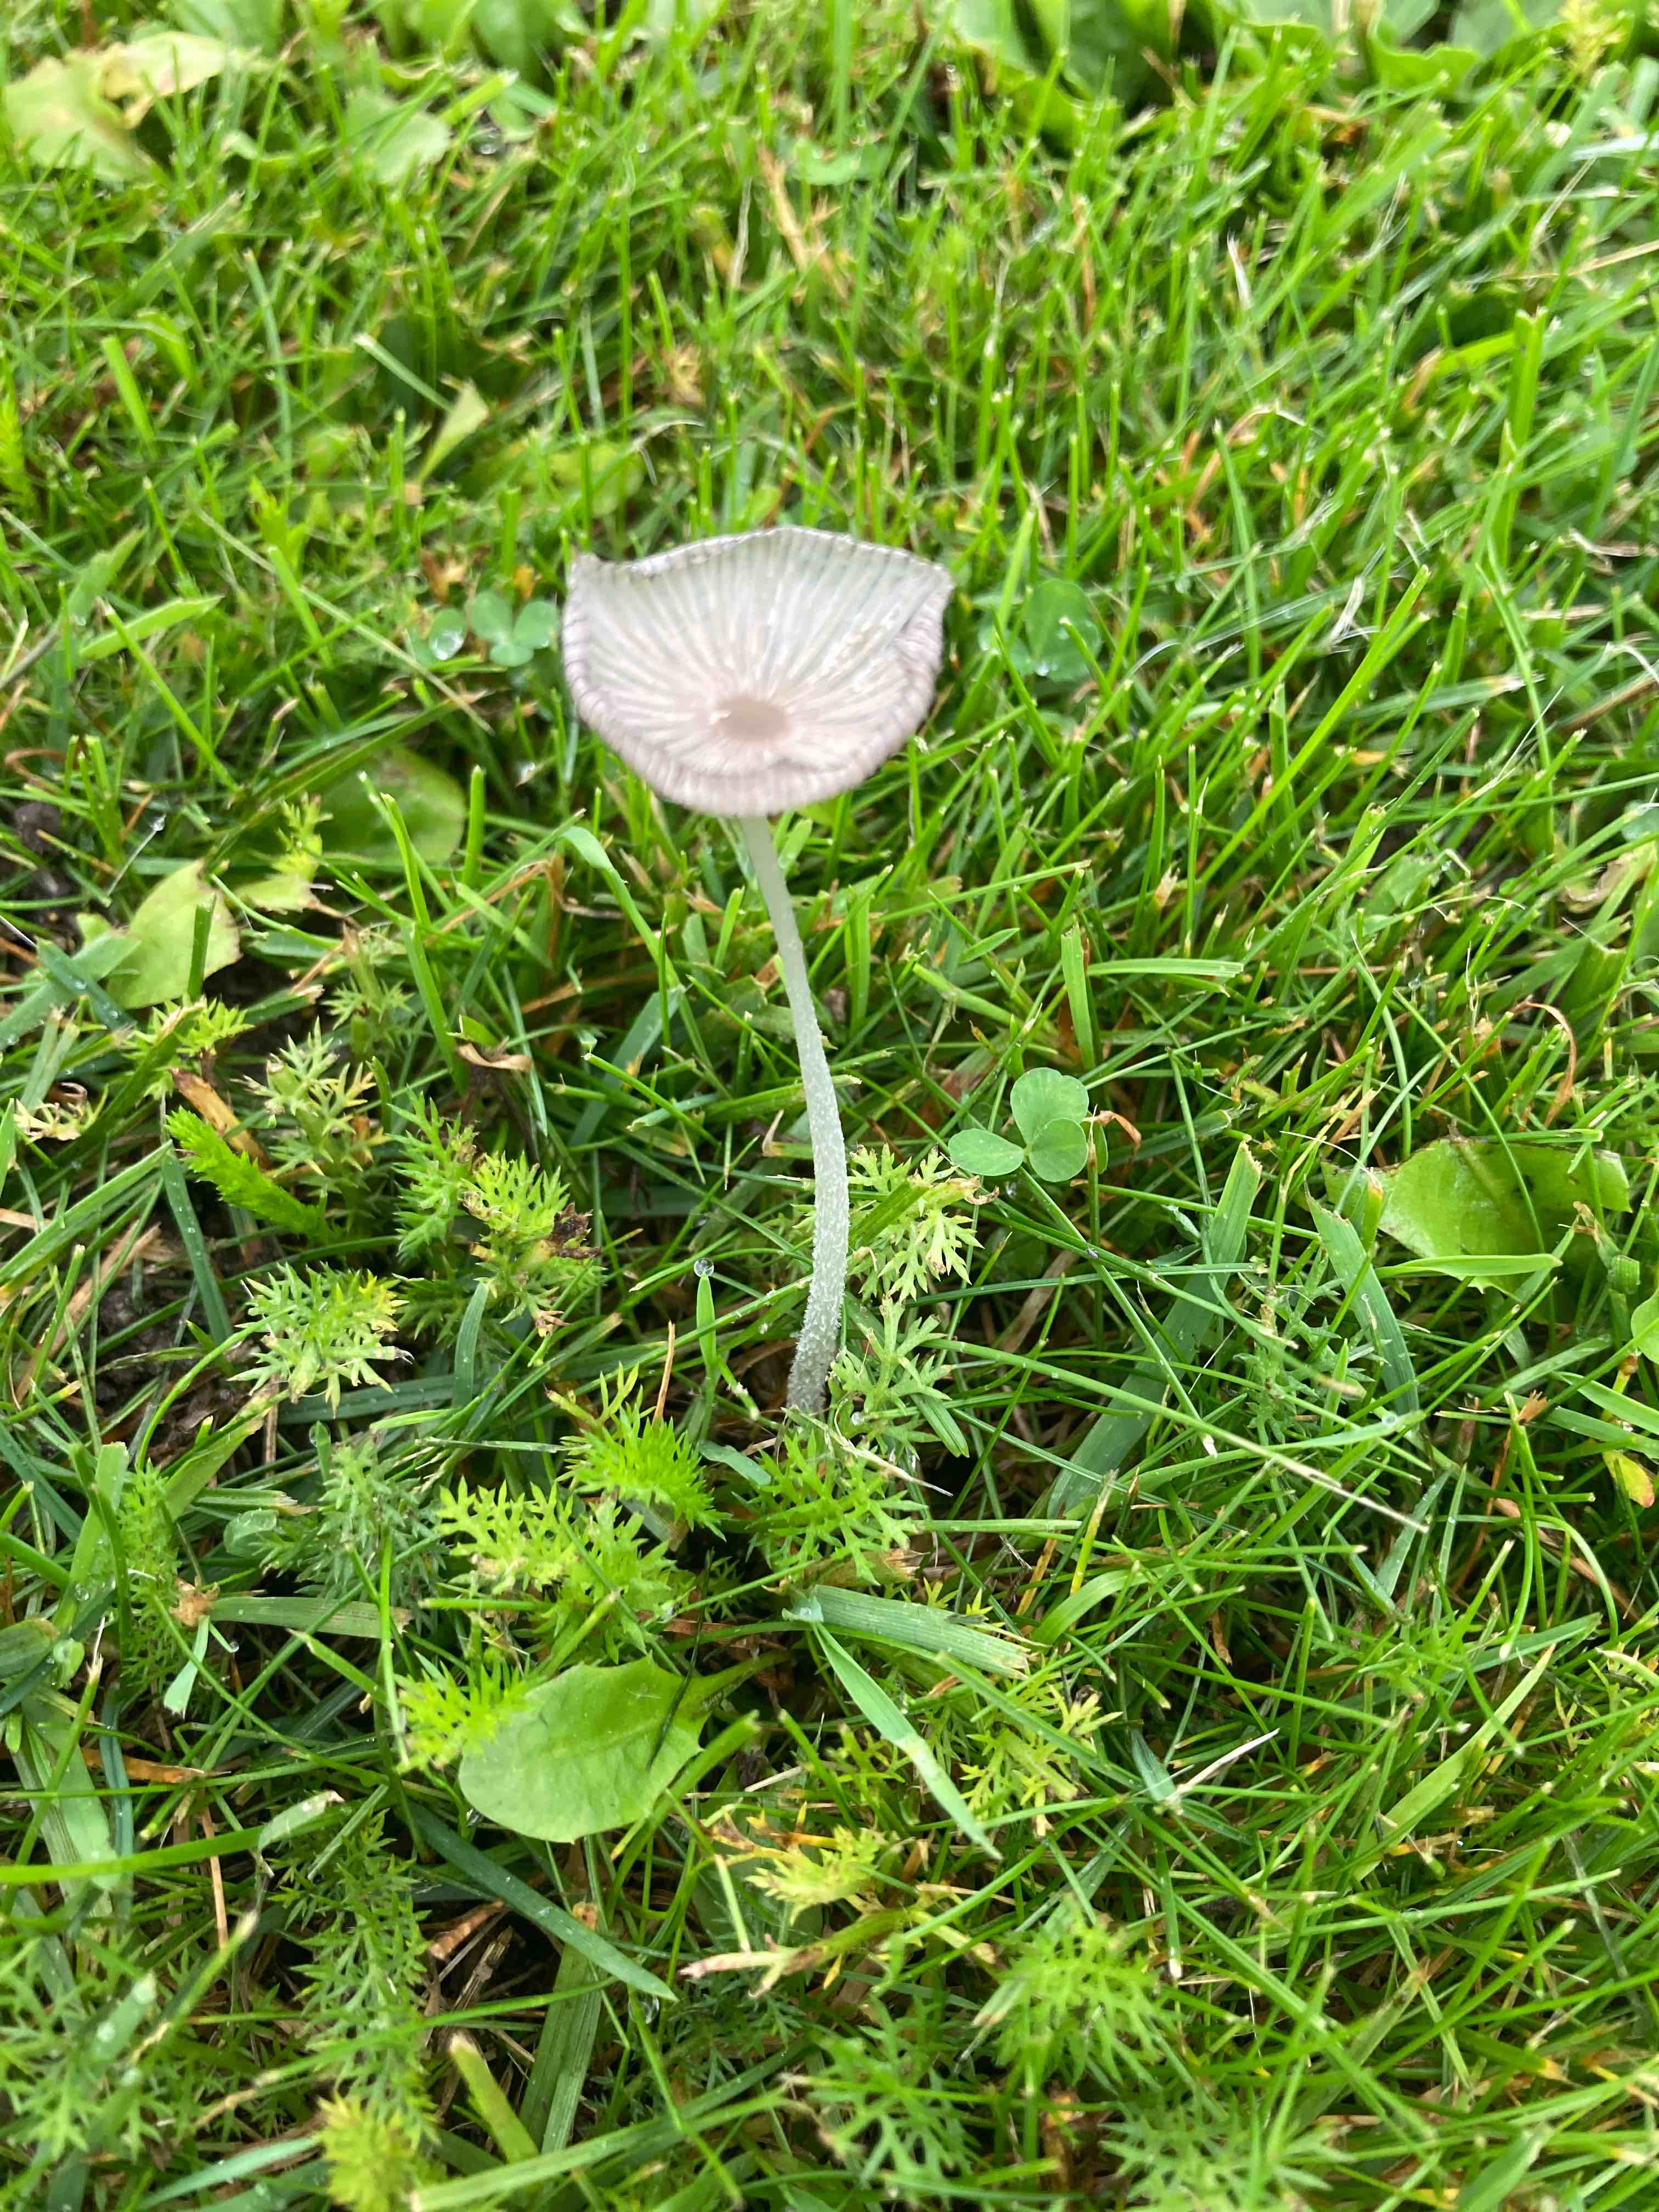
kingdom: Fungi
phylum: Basidiomycota
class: Agaricomycetes
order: Agaricales
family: Psathyrellaceae
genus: Coprinopsis
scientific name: Coprinopsis lagopus
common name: dunstokket blækhat
